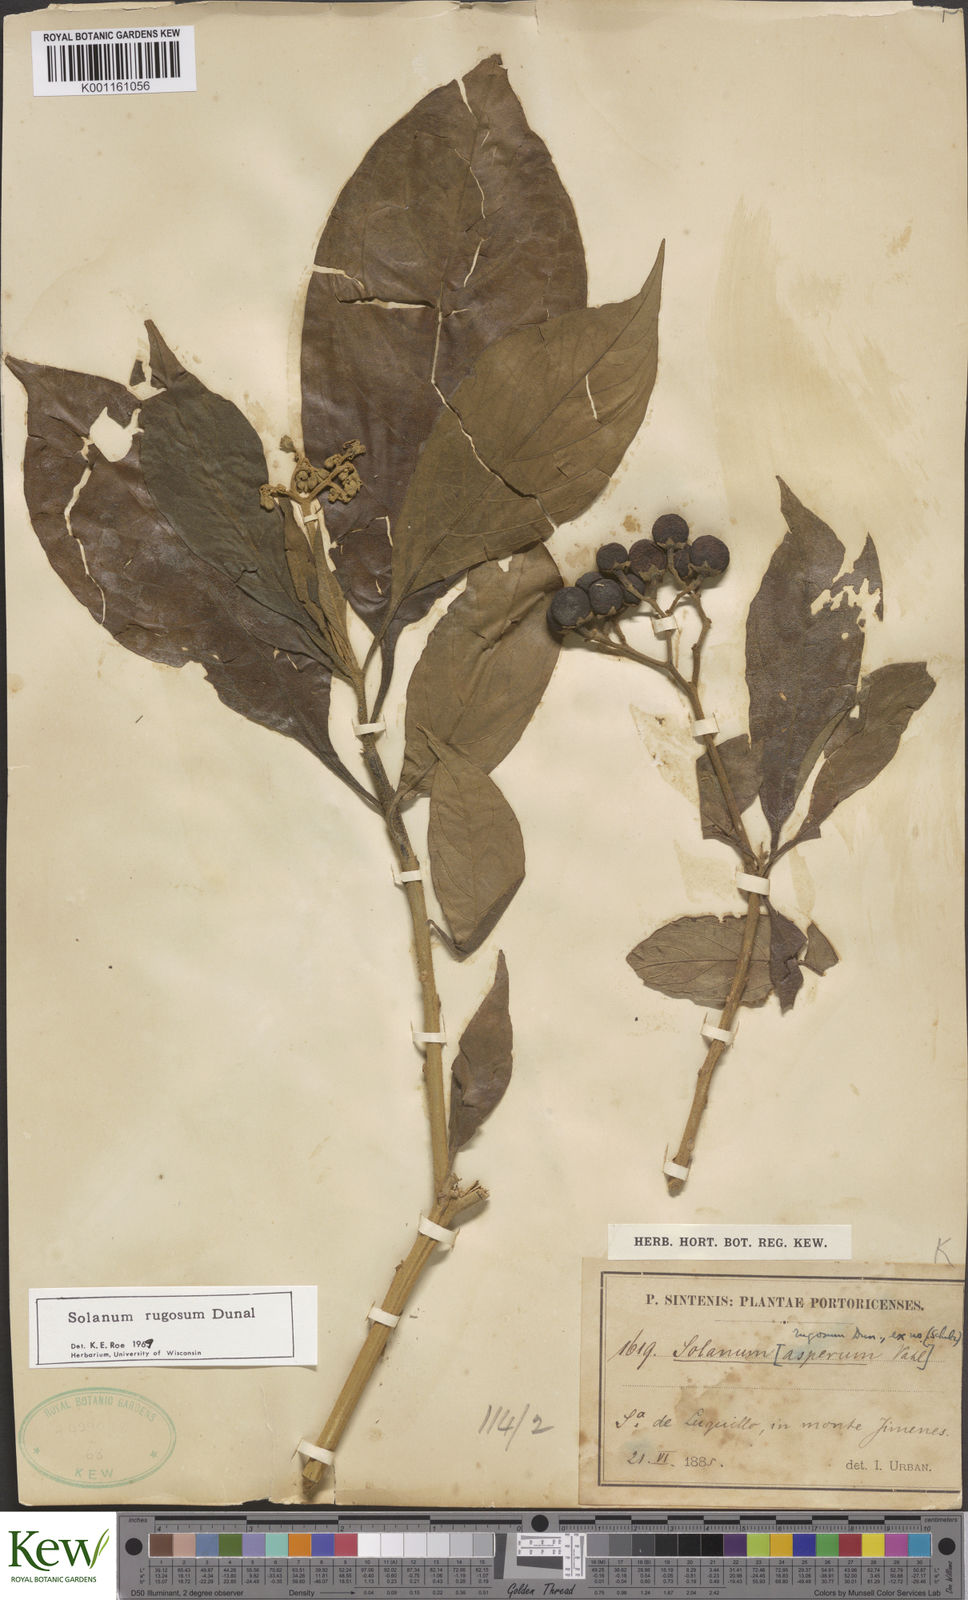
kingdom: Plantae
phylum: Tracheophyta
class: Magnoliopsida
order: Solanales
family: Solanaceae
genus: Solanum
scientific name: Solanum rugosum
